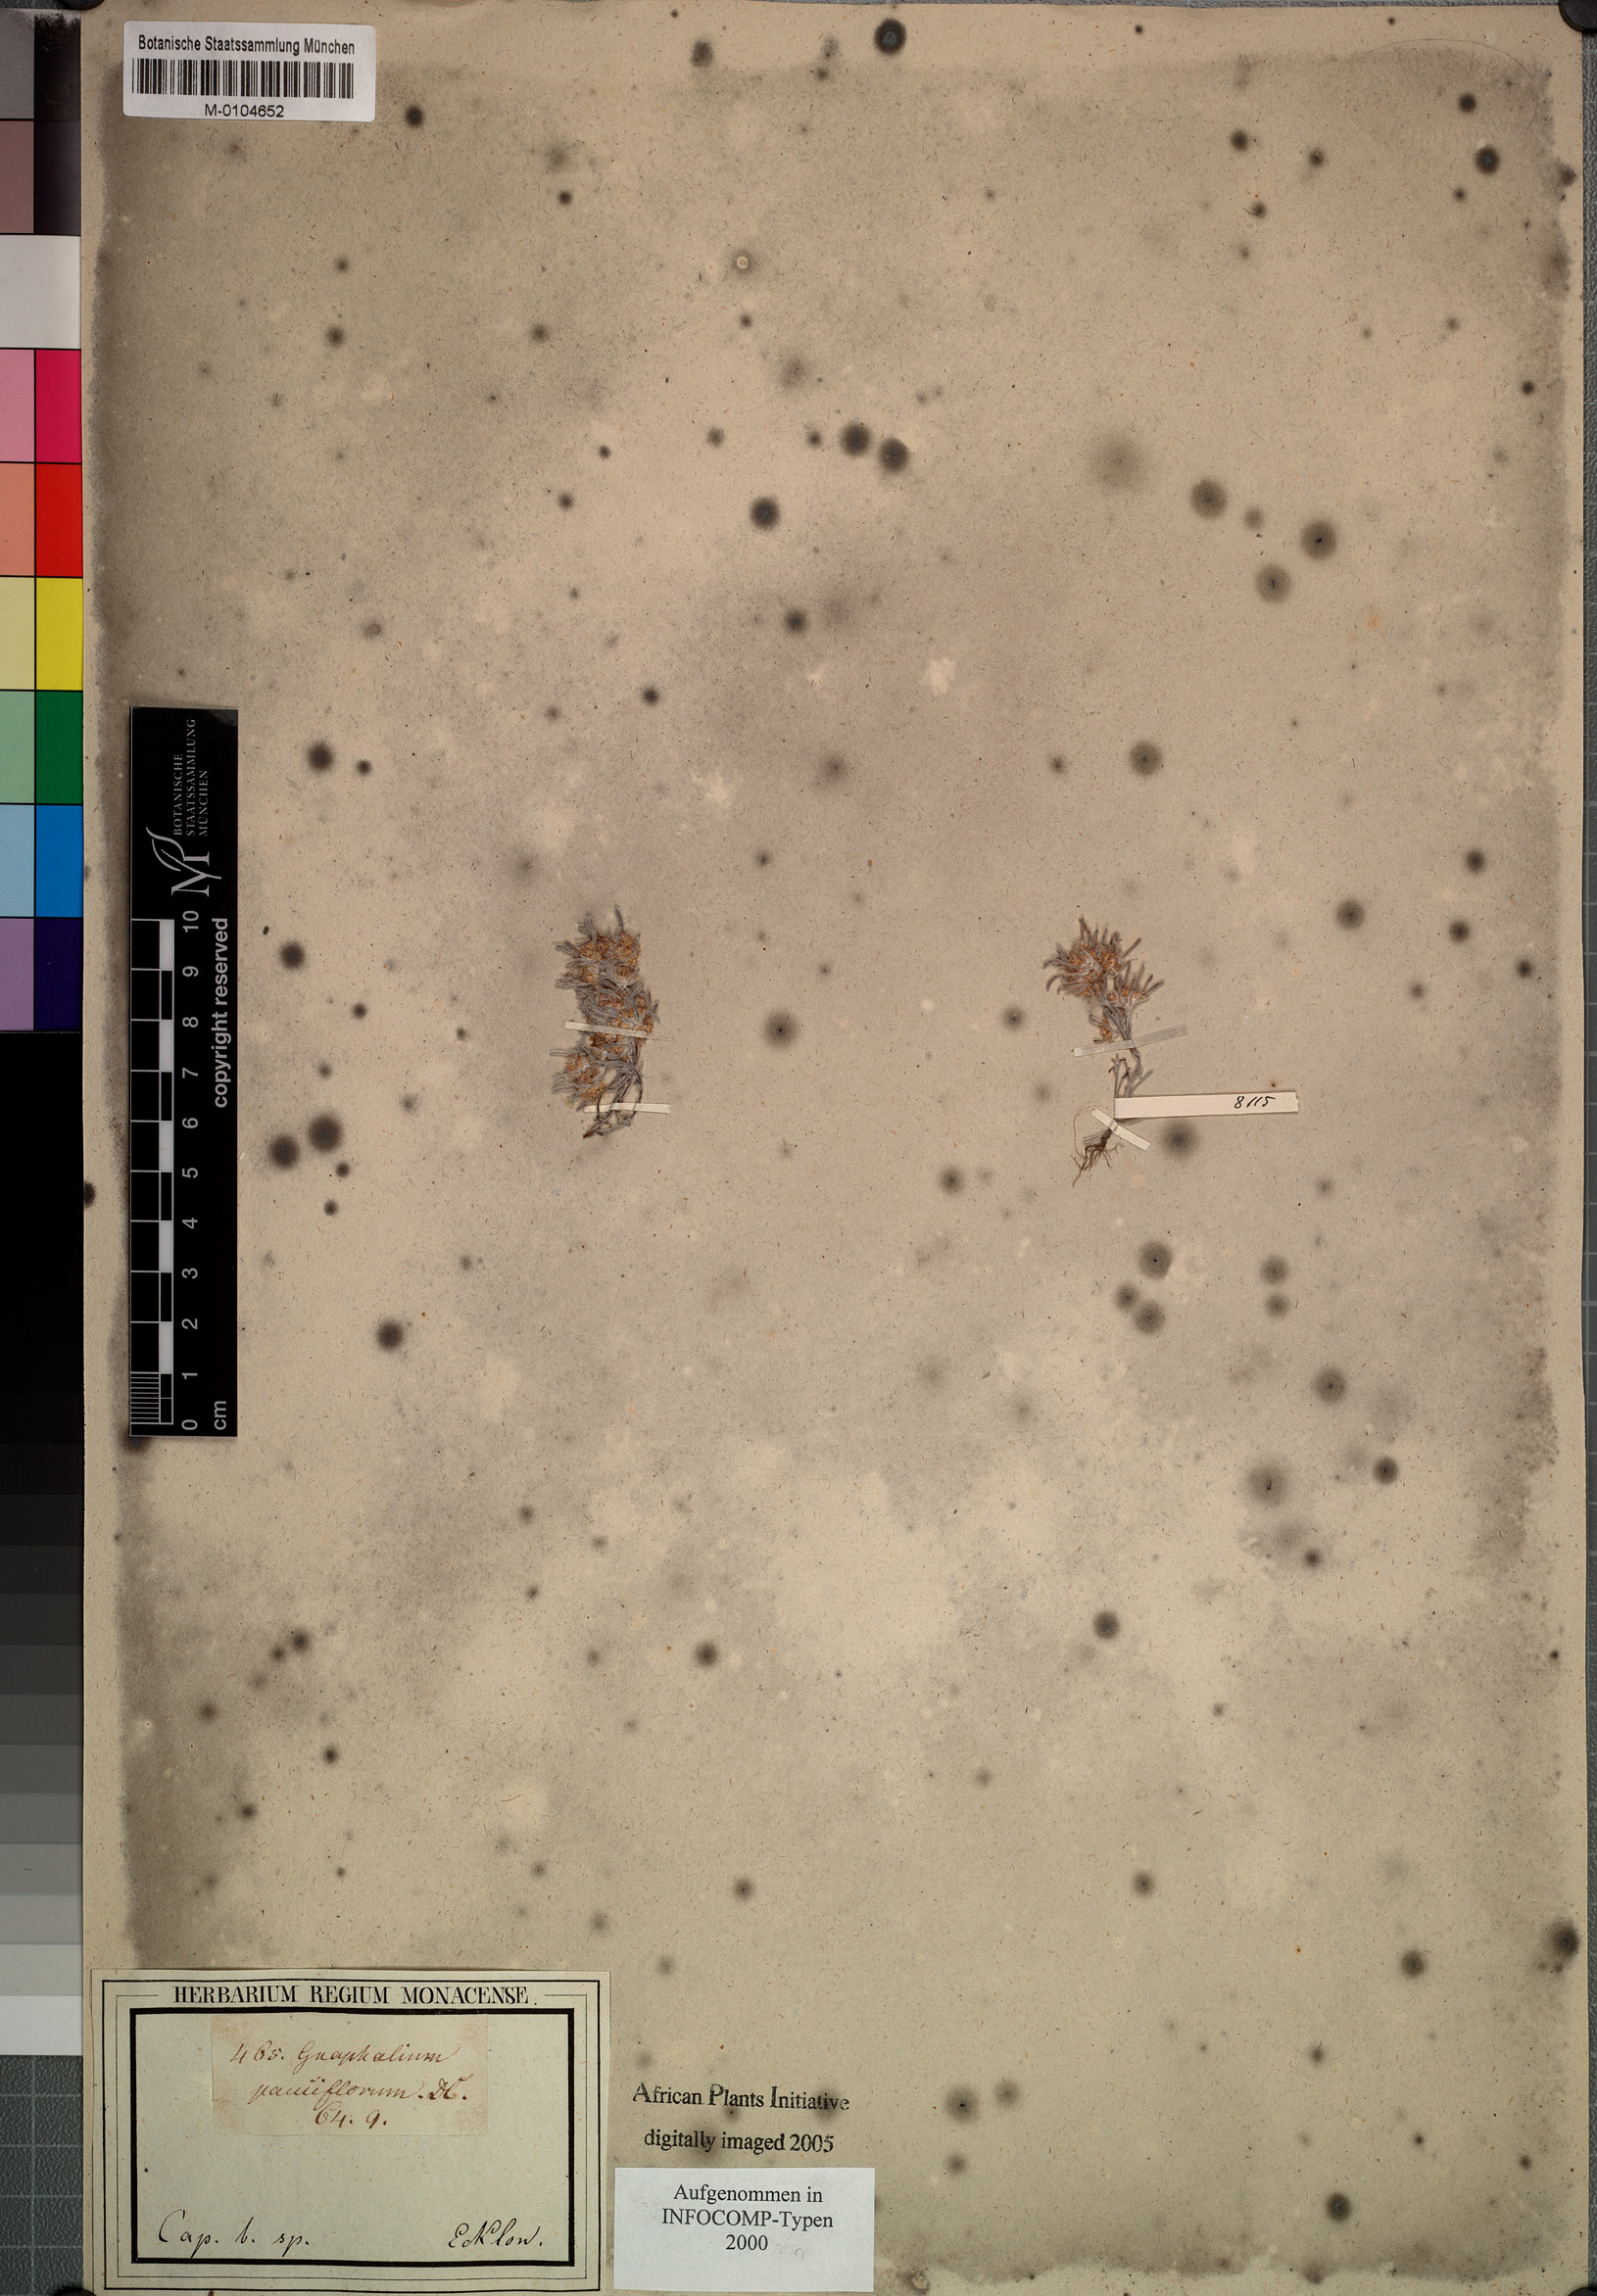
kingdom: Plantae
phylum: Tracheophyta
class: Magnoliopsida
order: Asterales
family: Asteraceae
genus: Gnaphalium
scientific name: Gnaphalium pauciflorum
